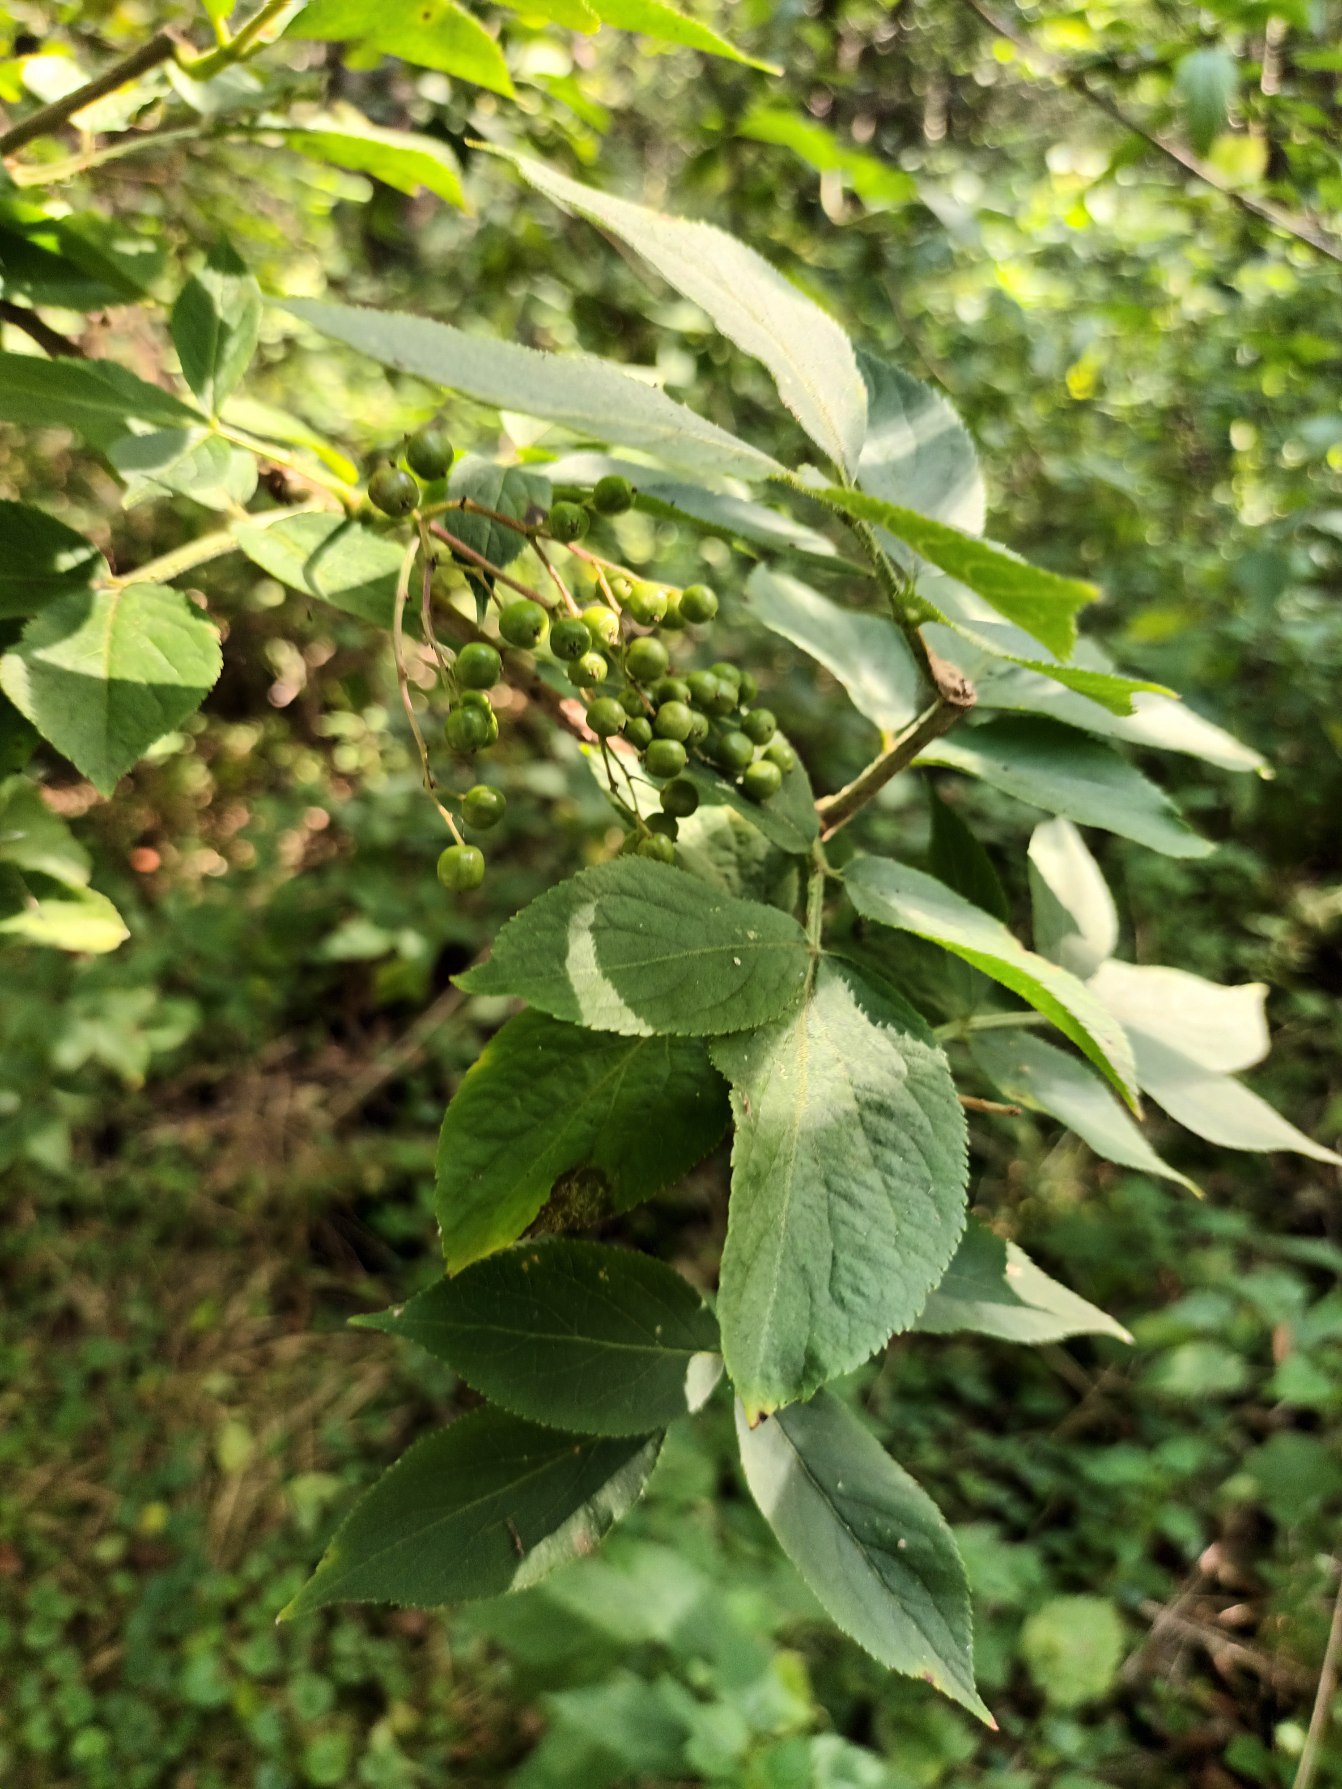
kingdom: Plantae
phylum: Tracheophyta
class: Magnoliopsida
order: Dipsacales
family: Viburnaceae
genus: Sambucus
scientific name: Sambucus nigra
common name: Almindelig hyld
